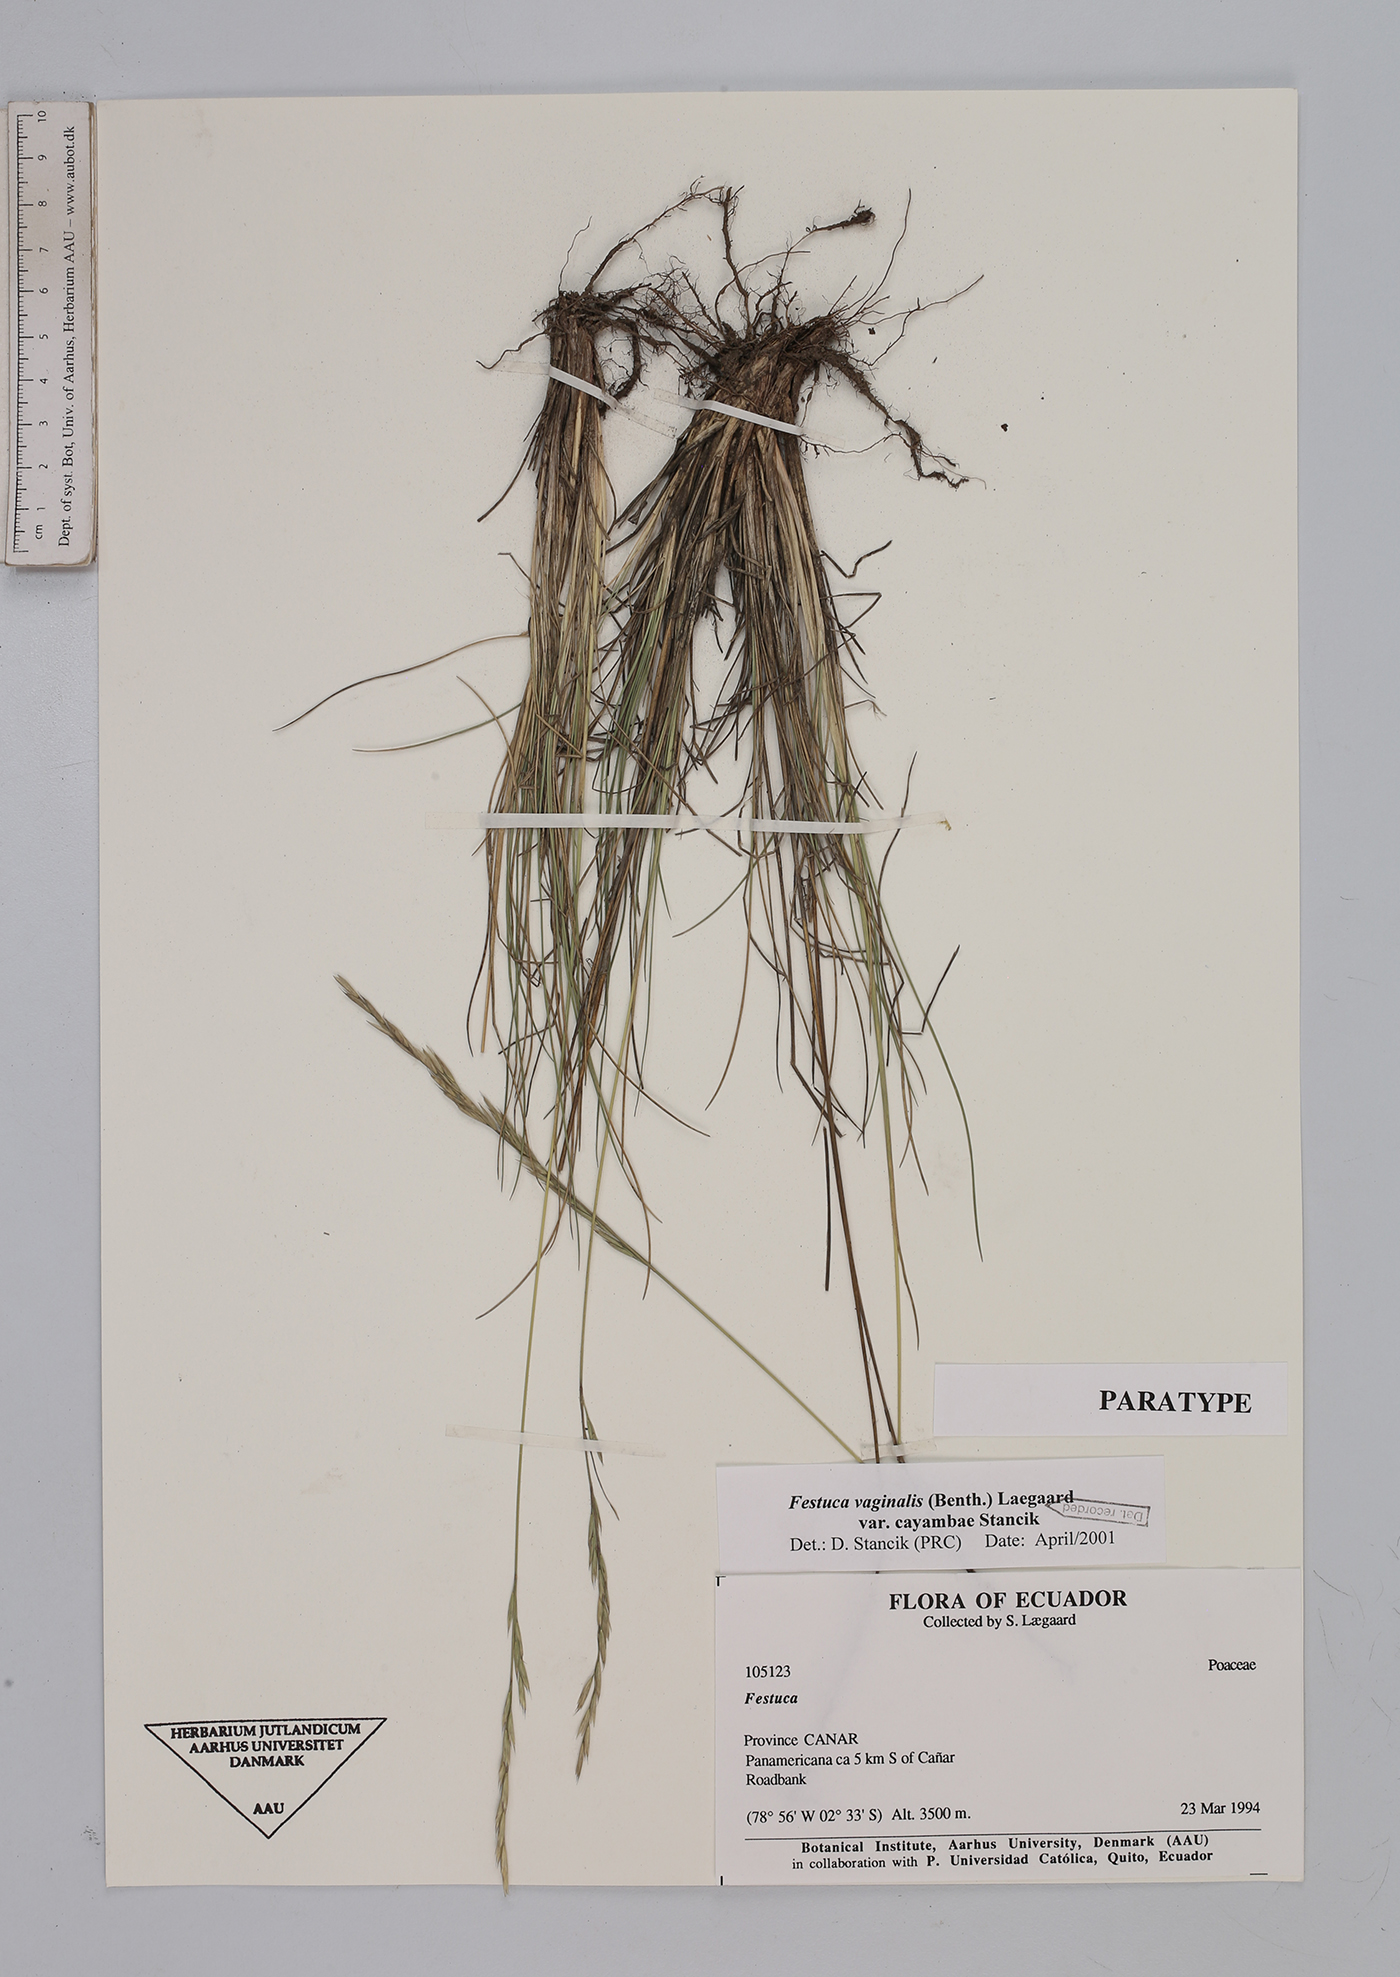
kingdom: Plantae
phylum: Tracheophyta
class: Liliopsida
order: Poales
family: Poaceae
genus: Festuca
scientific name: Festuca vaginalis
